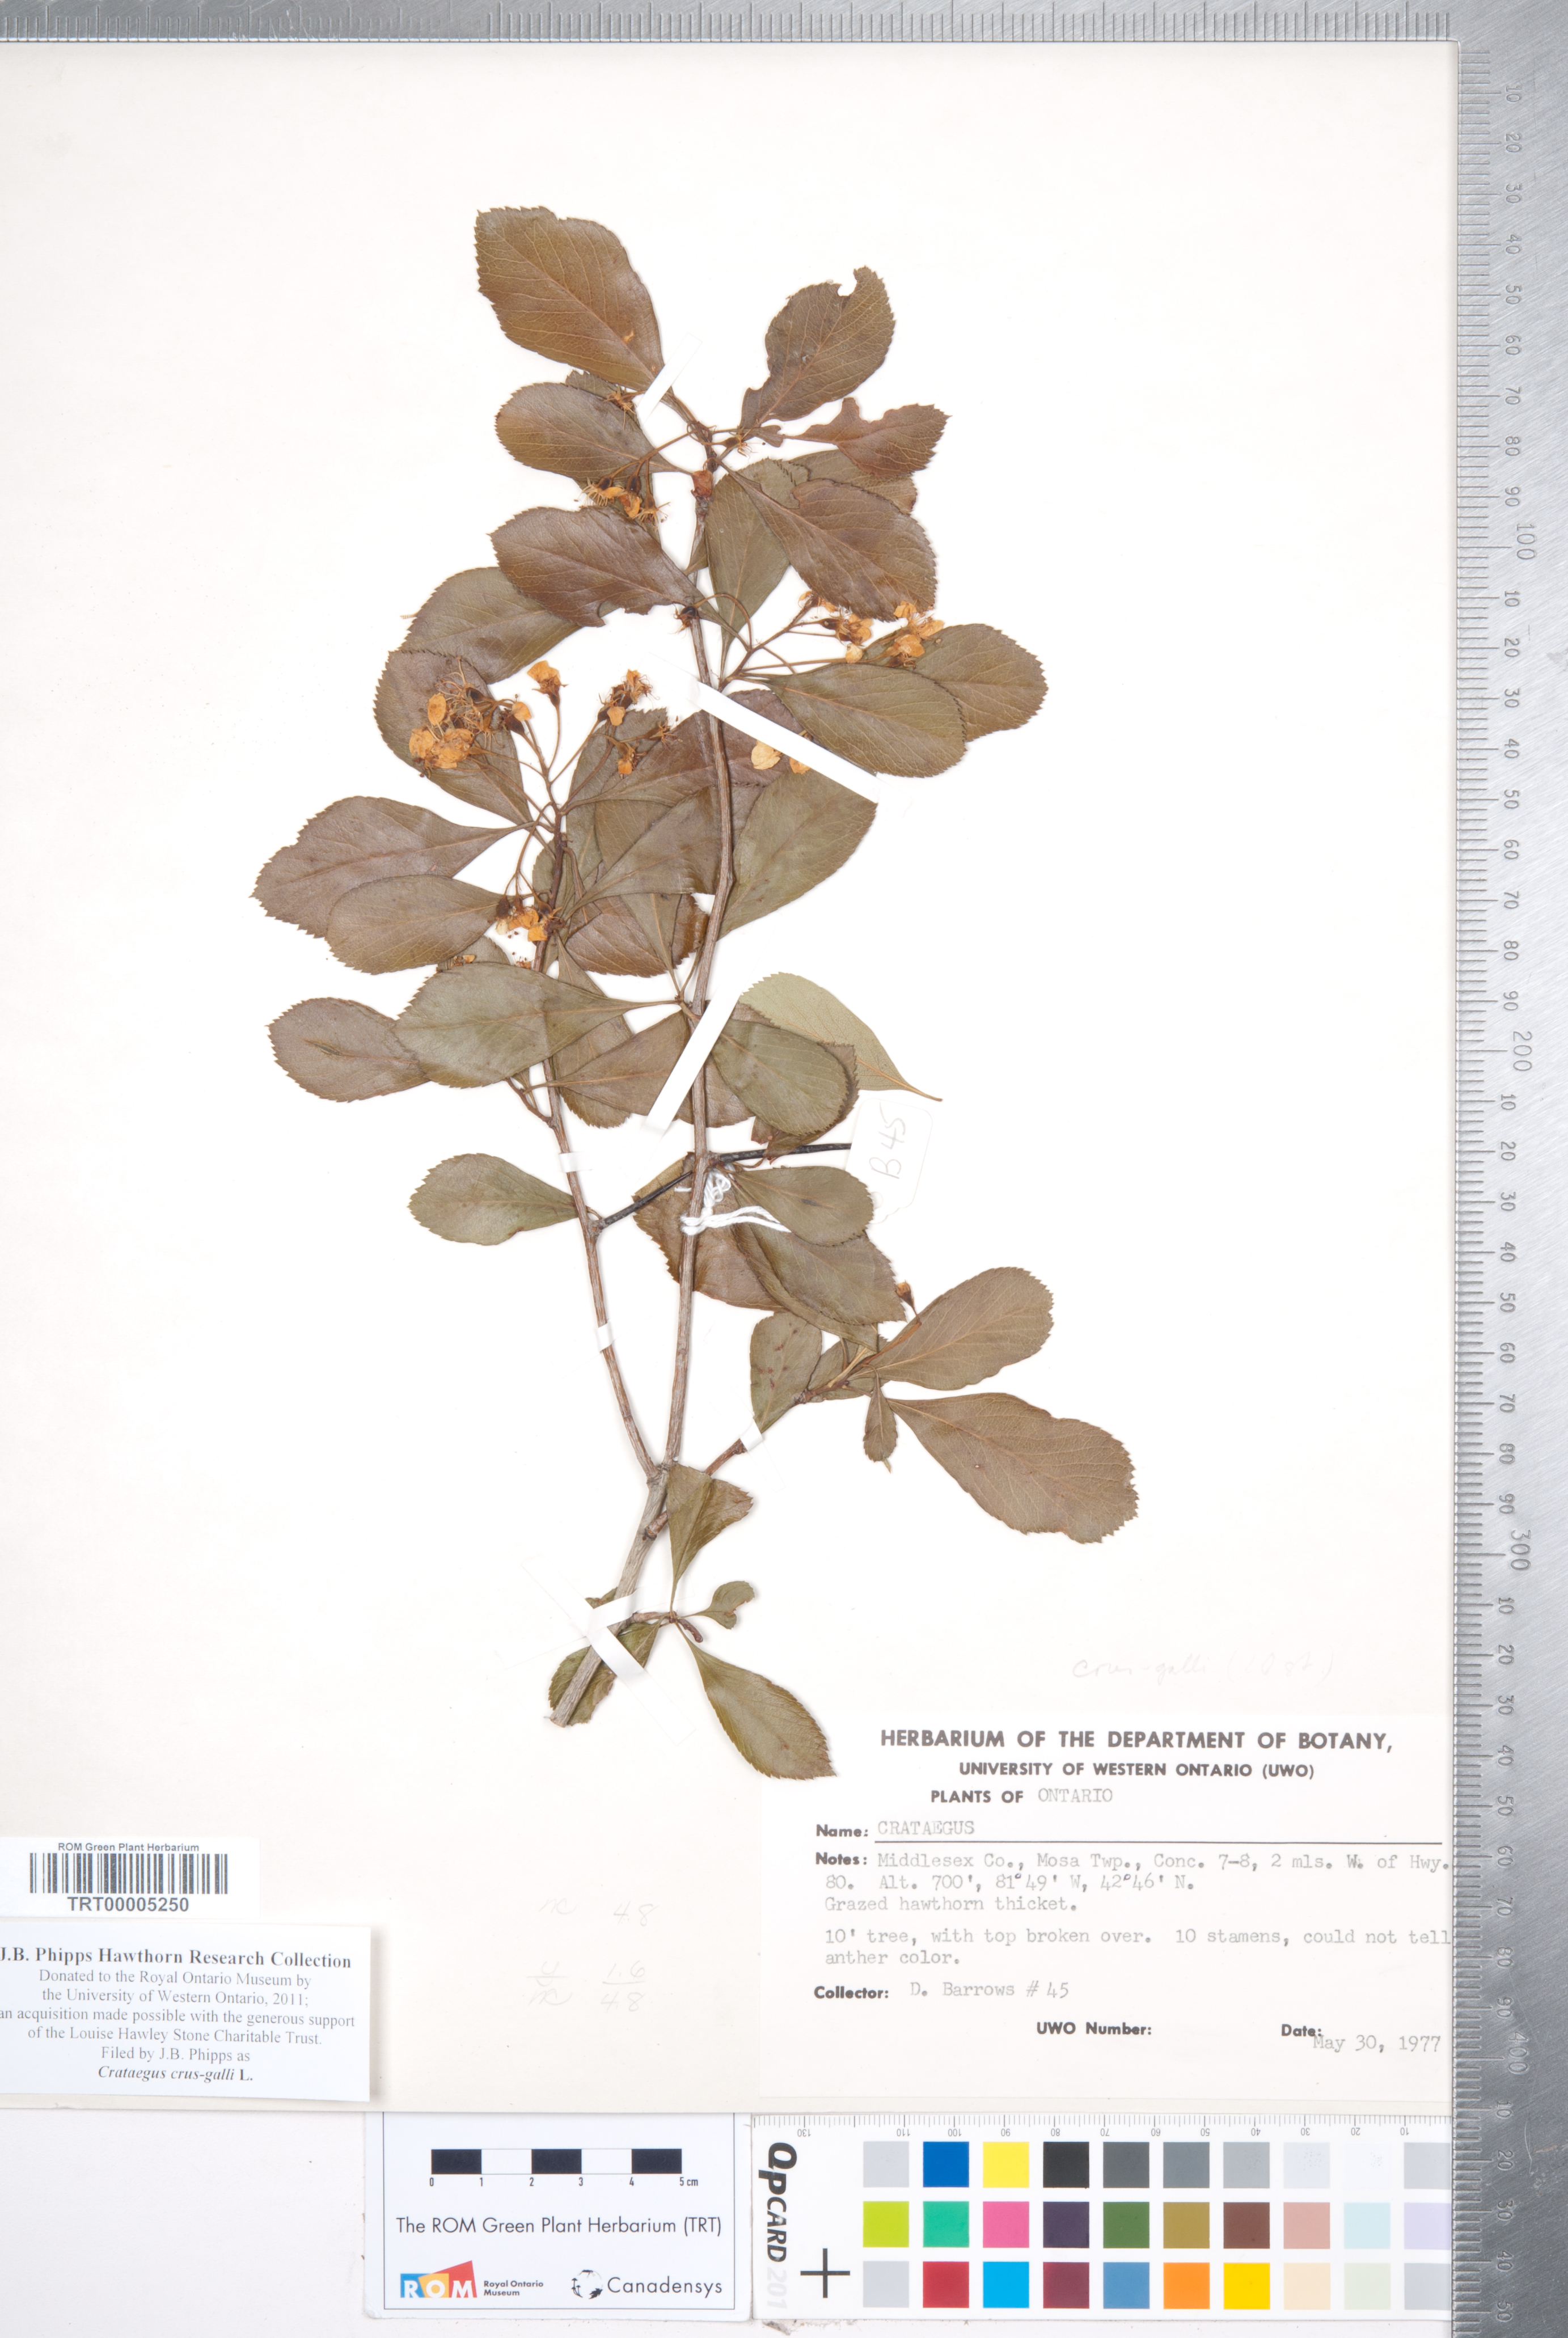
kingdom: Plantae
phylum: Tracheophyta
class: Magnoliopsida
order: Rosales
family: Rosaceae
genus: Crataegus
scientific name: Crataegus crus-galli
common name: Cockspurthorn
